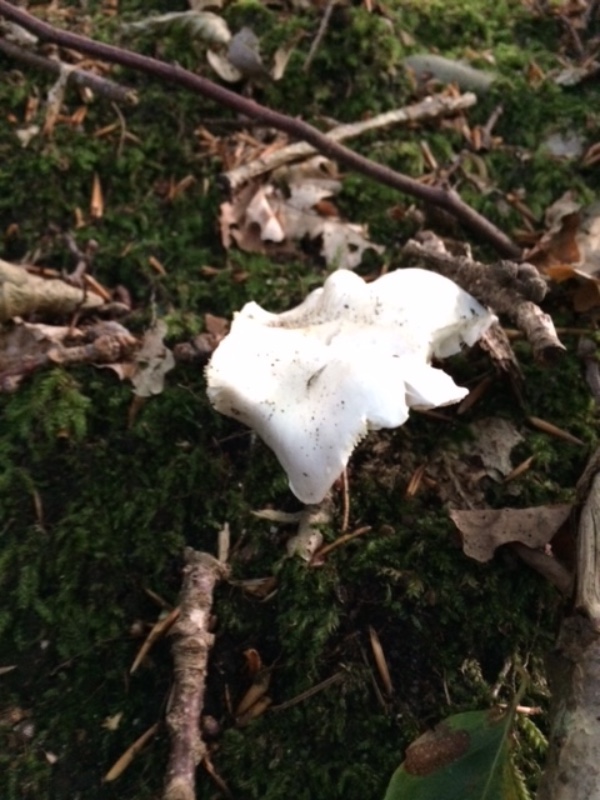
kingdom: Fungi
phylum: Basidiomycota
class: Agaricomycetes
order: Agaricales
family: Tricholomataceae
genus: Tricholoma
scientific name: Tricholoma columbetta
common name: silke-ridderhat
